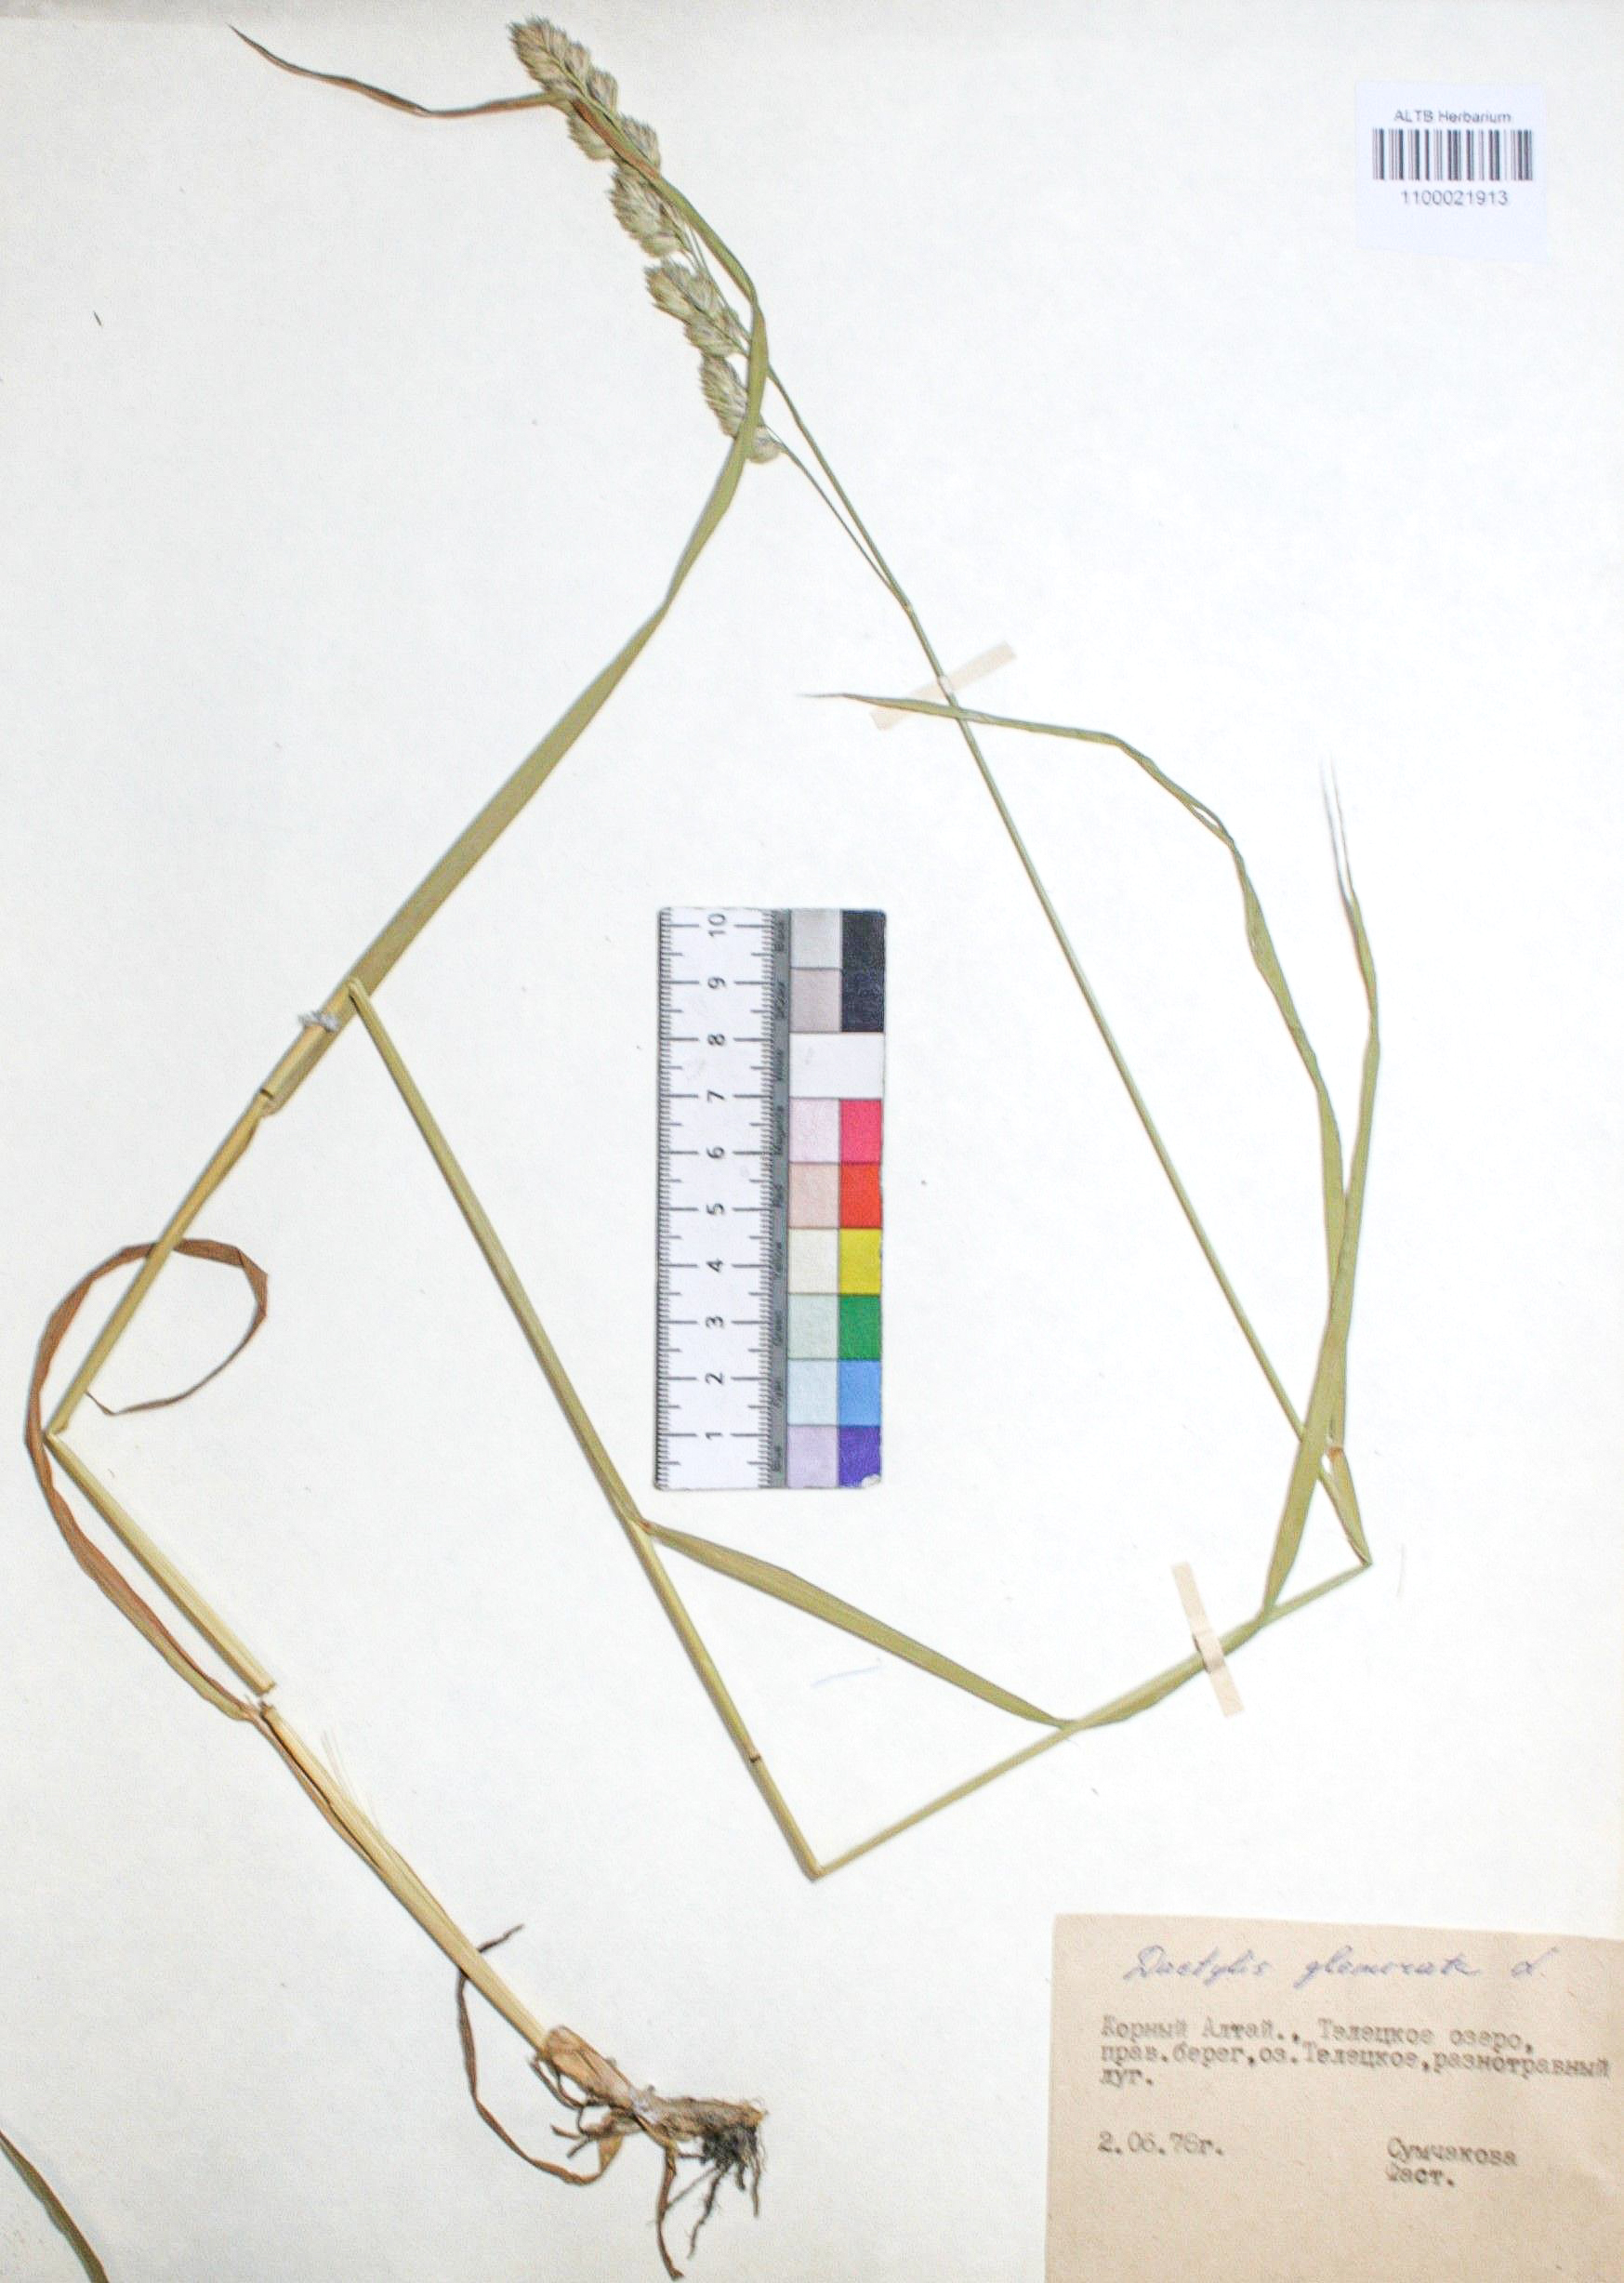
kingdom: Plantae
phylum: Tracheophyta
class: Liliopsida
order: Poales
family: Poaceae
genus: Dactylis
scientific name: Dactylis glomerata
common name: Orchardgrass
